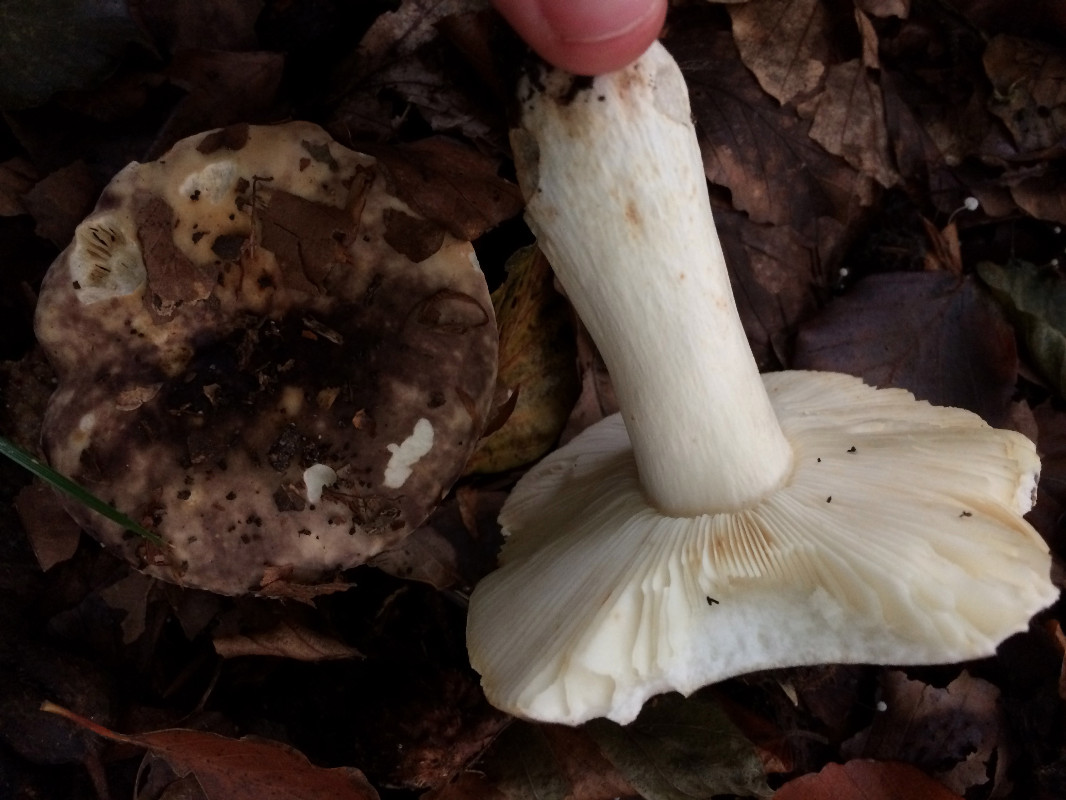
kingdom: Fungi
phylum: Basidiomycota
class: Agaricomycetes
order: Russulales
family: Russulaceae
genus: Russula
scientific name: Russula atropurpurea
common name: purpurbroget skørhat
